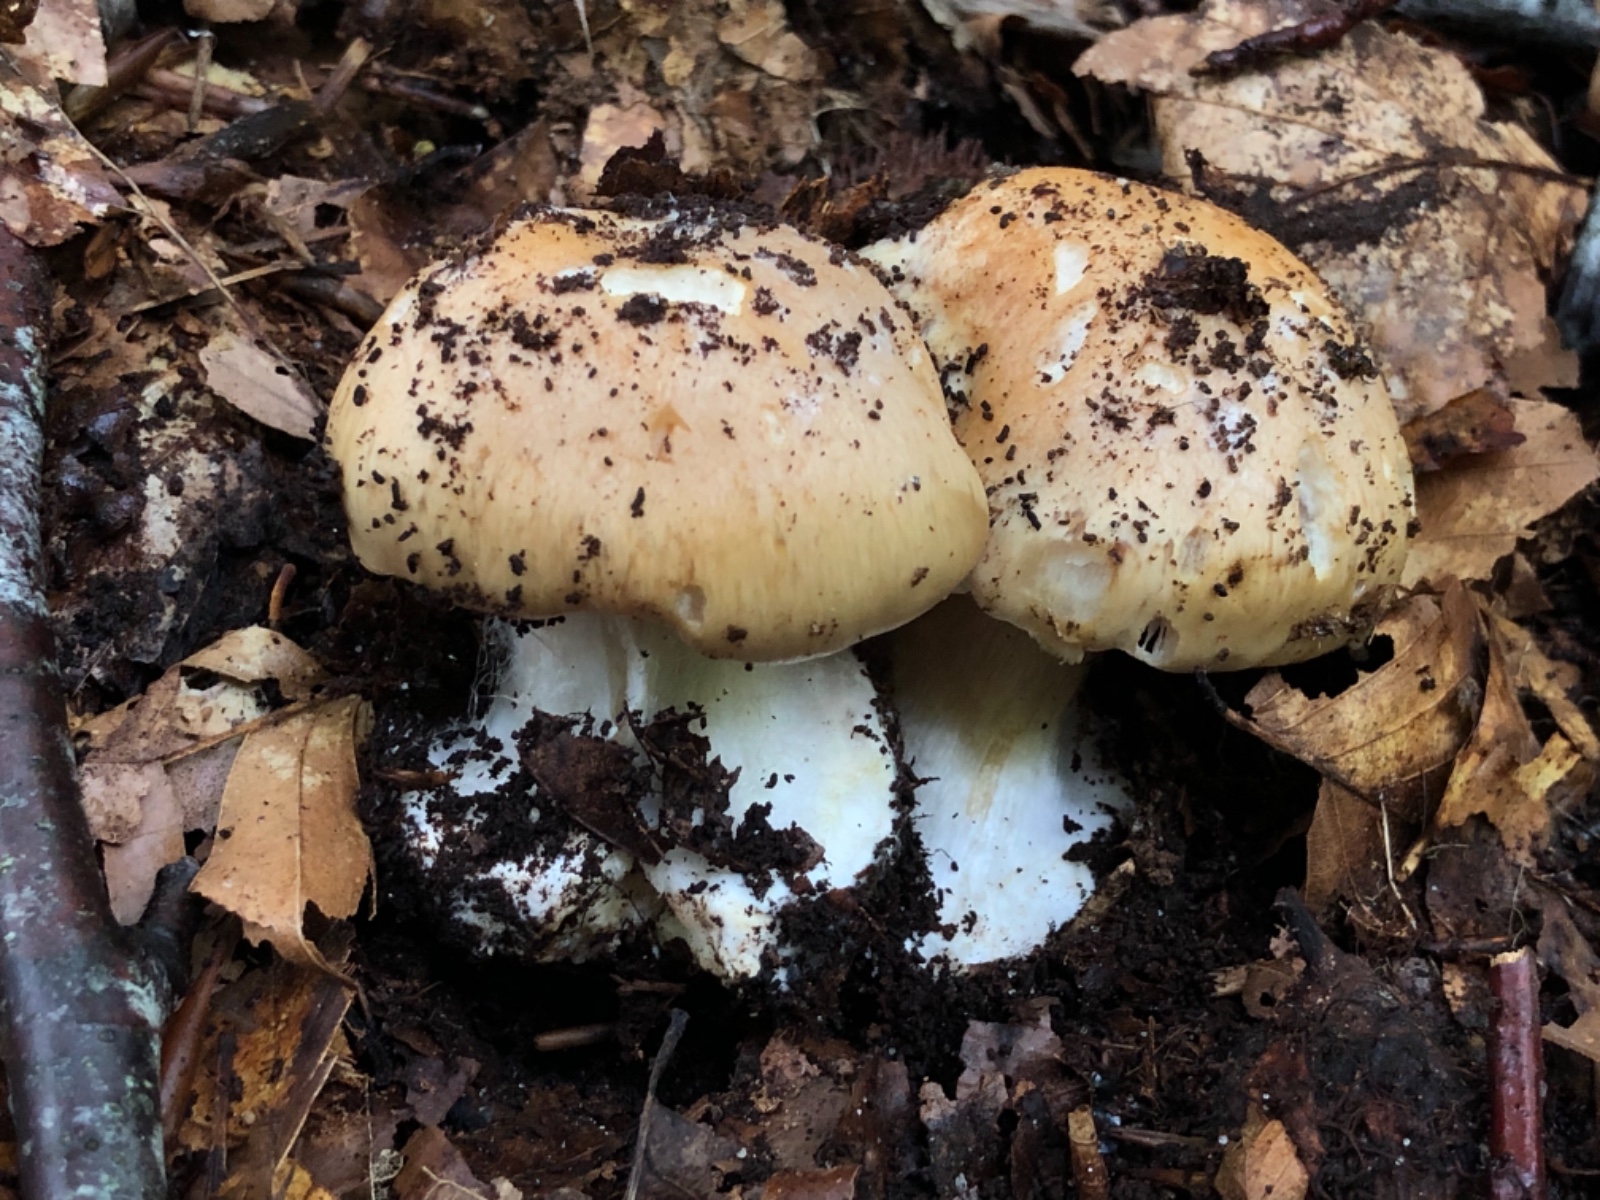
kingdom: Fungi
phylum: Basidiomycota
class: Agaricomycetes
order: Agaricales
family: Cortinariaceae
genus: Phlegmacium
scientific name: Phlegmacium aquilanum
